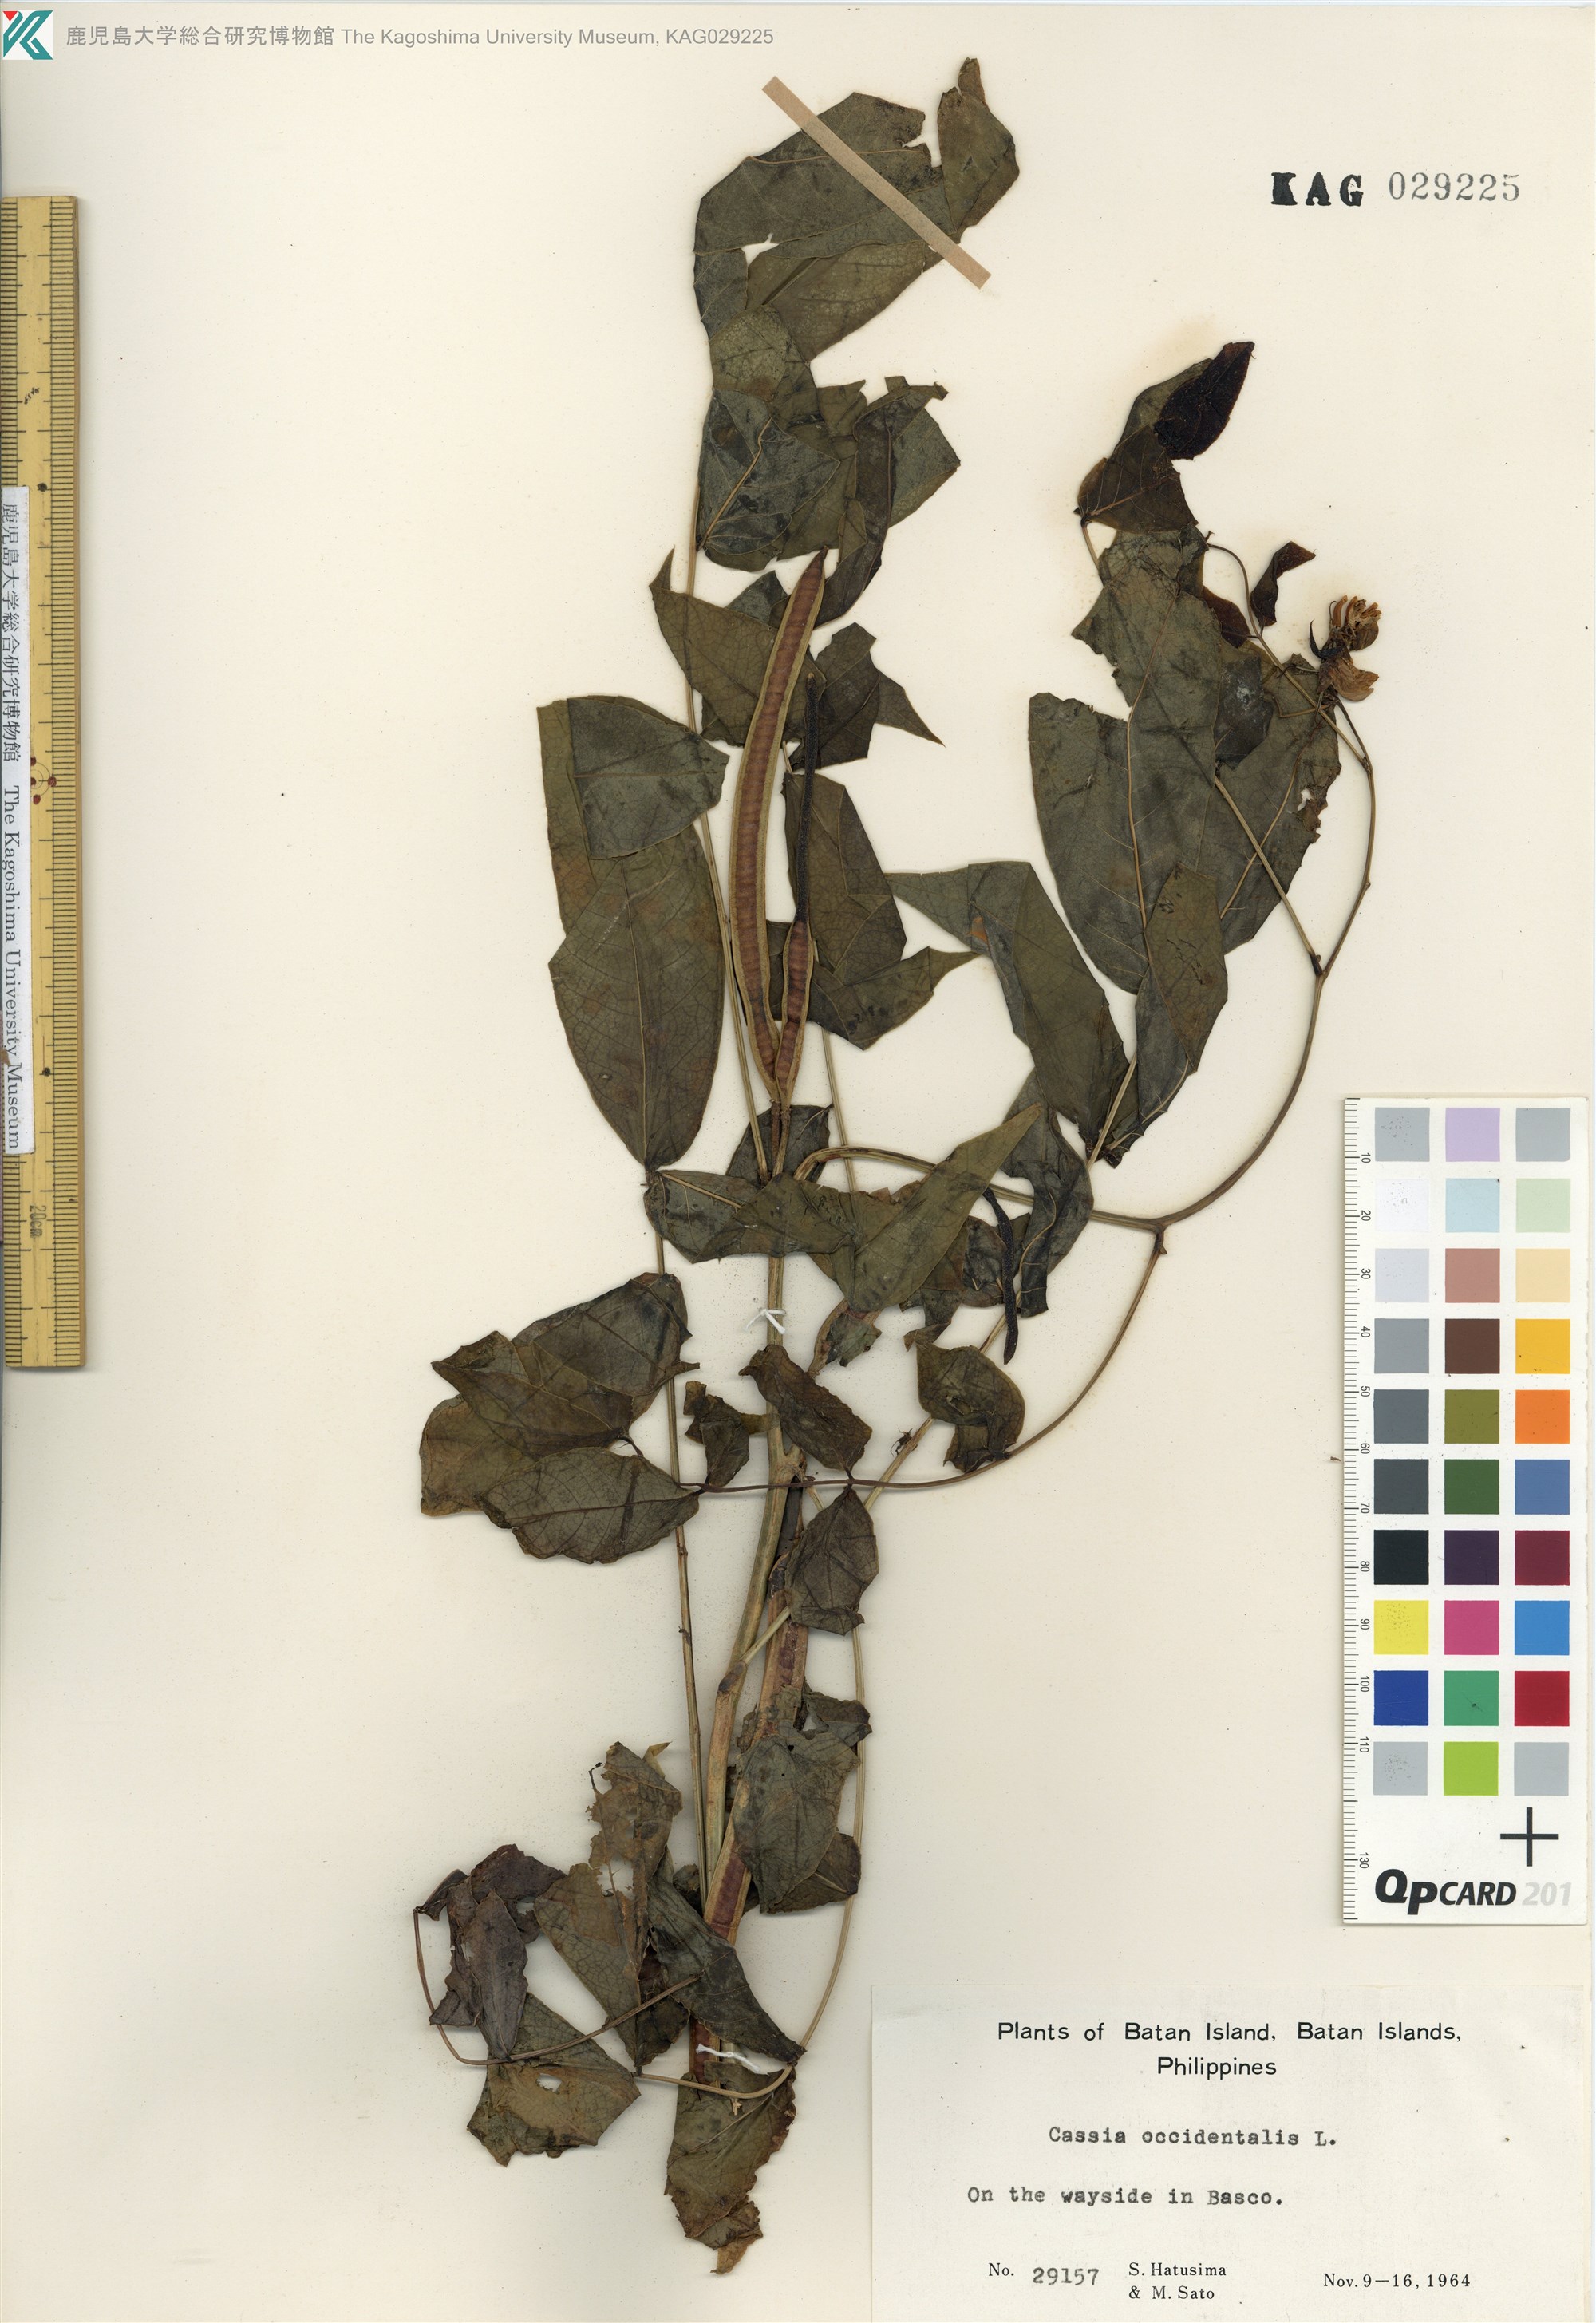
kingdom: Plantae
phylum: Tracheophyta
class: Magnoliopsida
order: Fabales
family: Fabaceae
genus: Senna
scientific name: Senna occidentalis
